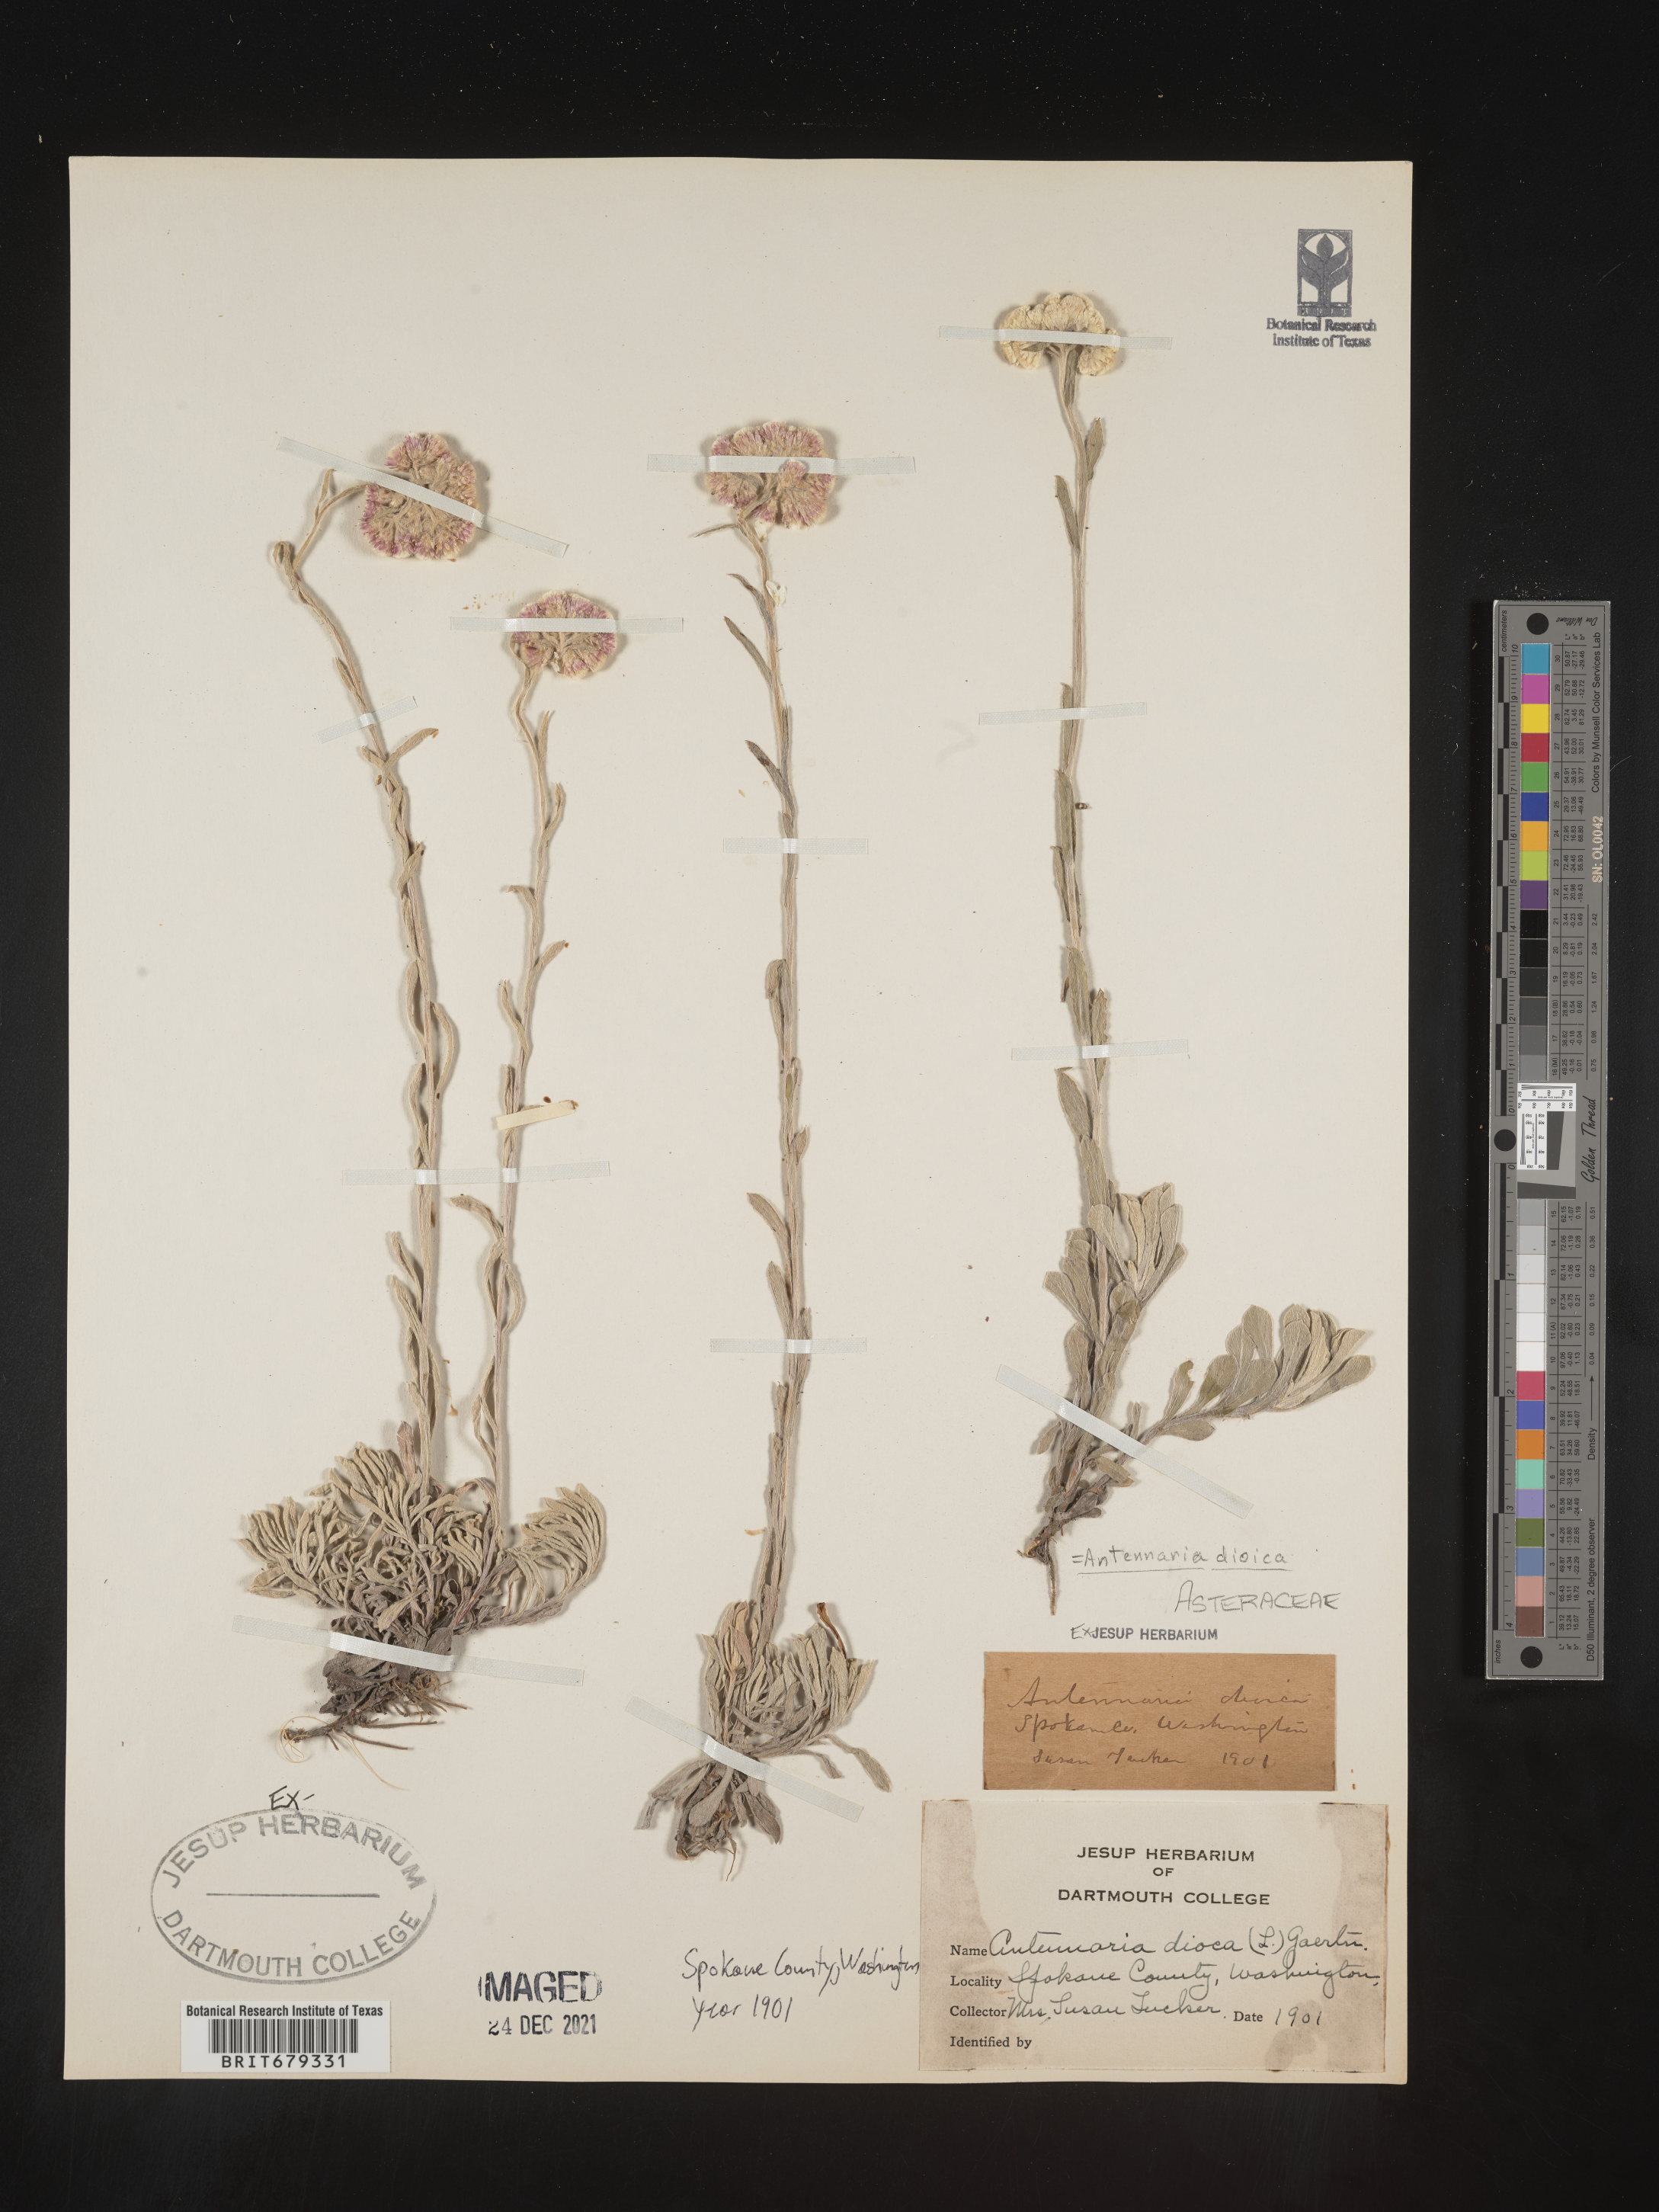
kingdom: Plantae
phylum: Tracheophyta
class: Magnoliopsida
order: Asterales
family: Asteraceae
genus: Antennaria
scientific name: Antennaria dioica
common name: Mountain everlasting
